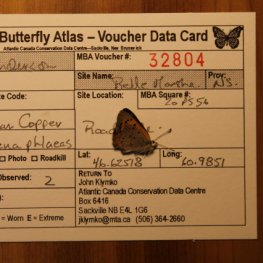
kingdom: Animalia
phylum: Arthropoda
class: Insecta
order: Lepidoptera
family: Lycaenidae
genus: Lycaena
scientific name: Lycaena phlaeas
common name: American Copper
